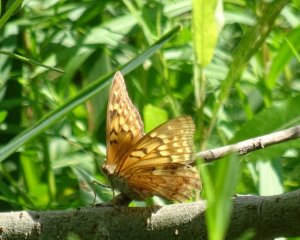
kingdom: Animalia
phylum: Arthropoda
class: Insecta
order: Lepidoptera
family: Nymphalidae
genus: Asterocampa
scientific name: Asterocampa clyton
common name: Tawny Emperor
